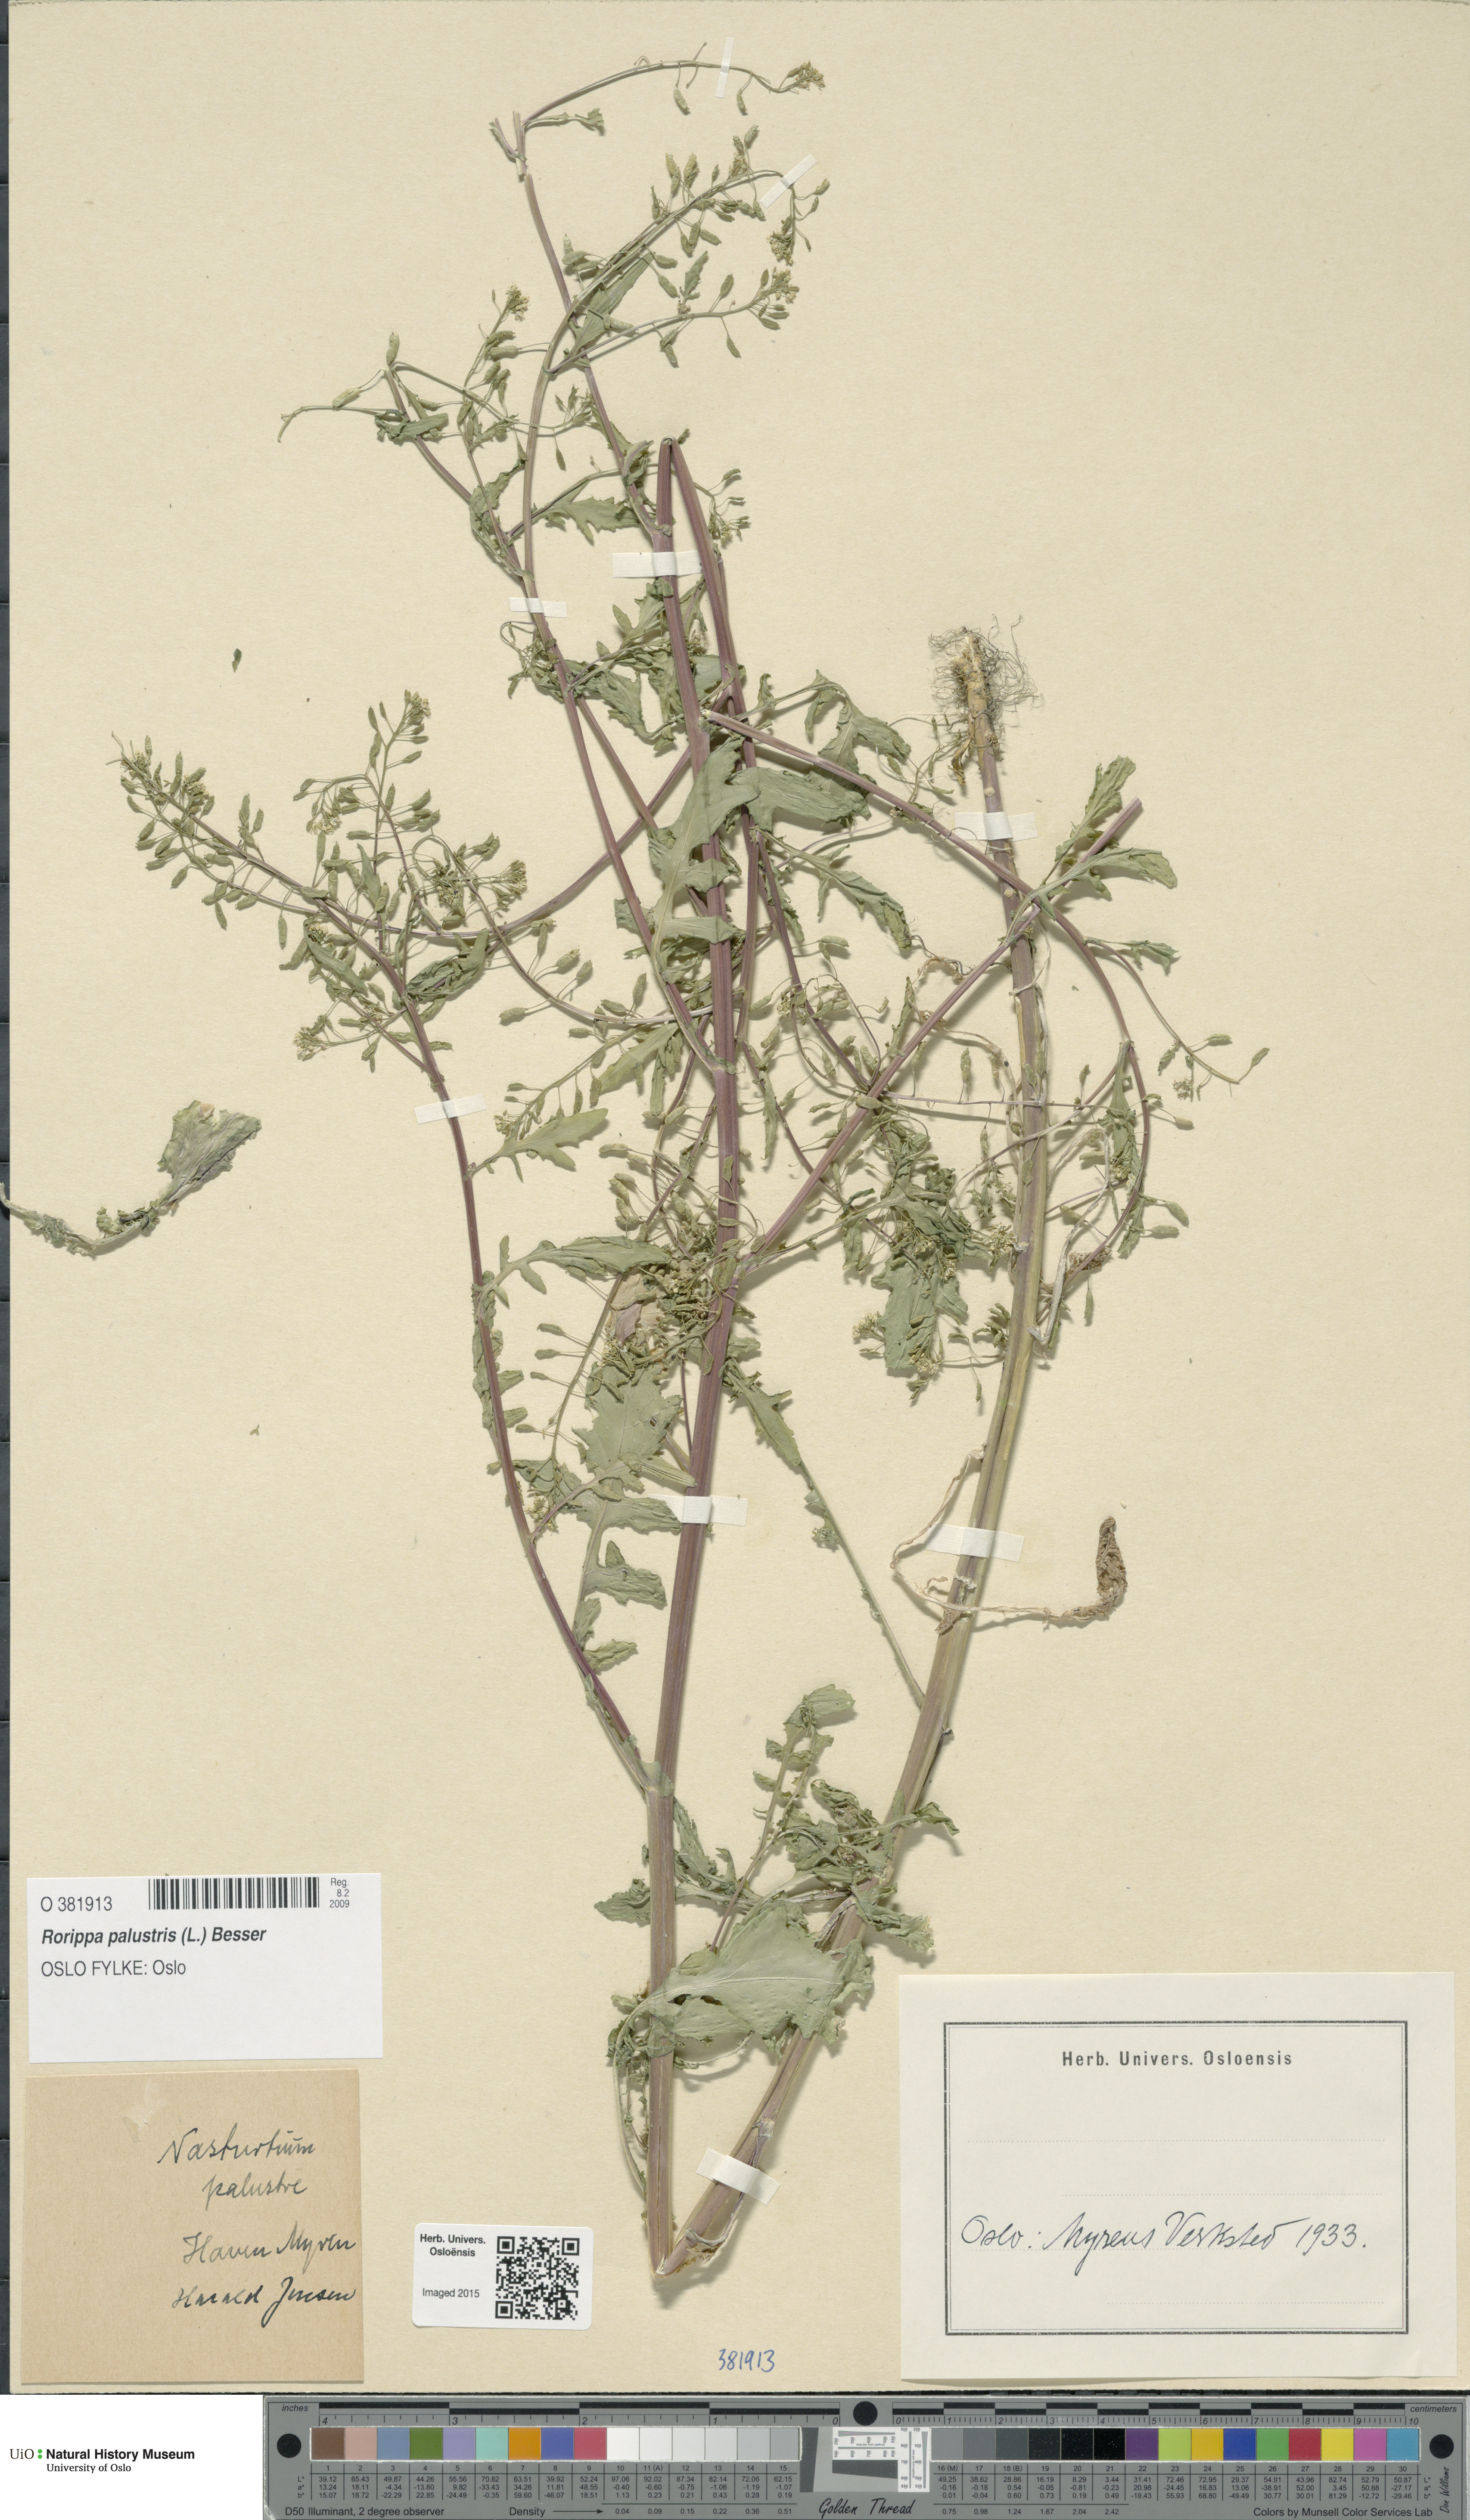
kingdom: Plantae
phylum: Tracheophyta
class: Magnoliopsida
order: Brassicales
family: Brassicaceae
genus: Rorippa
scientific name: Rorippa palustris
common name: Marsh yellow-cress
